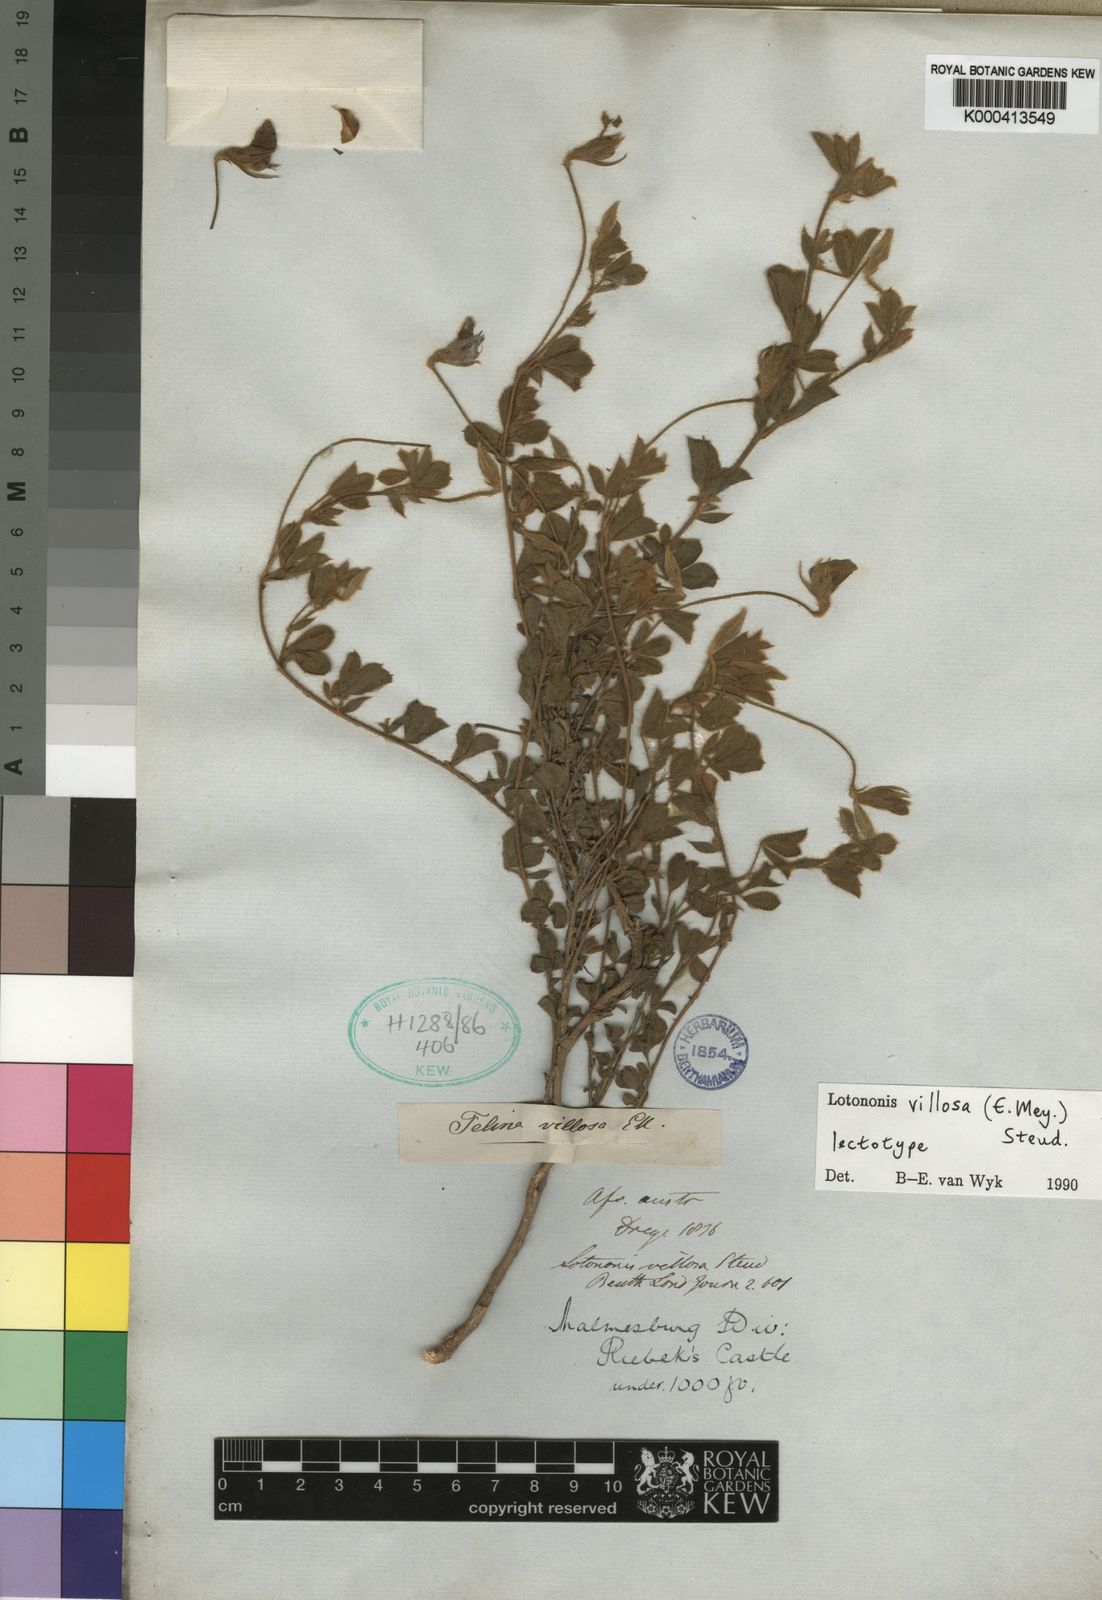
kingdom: Plantae
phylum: Tracheophyta
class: Magnoliopsida
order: Fabales
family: Fabaceae
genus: Lotononis
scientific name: Lotononis villosa
